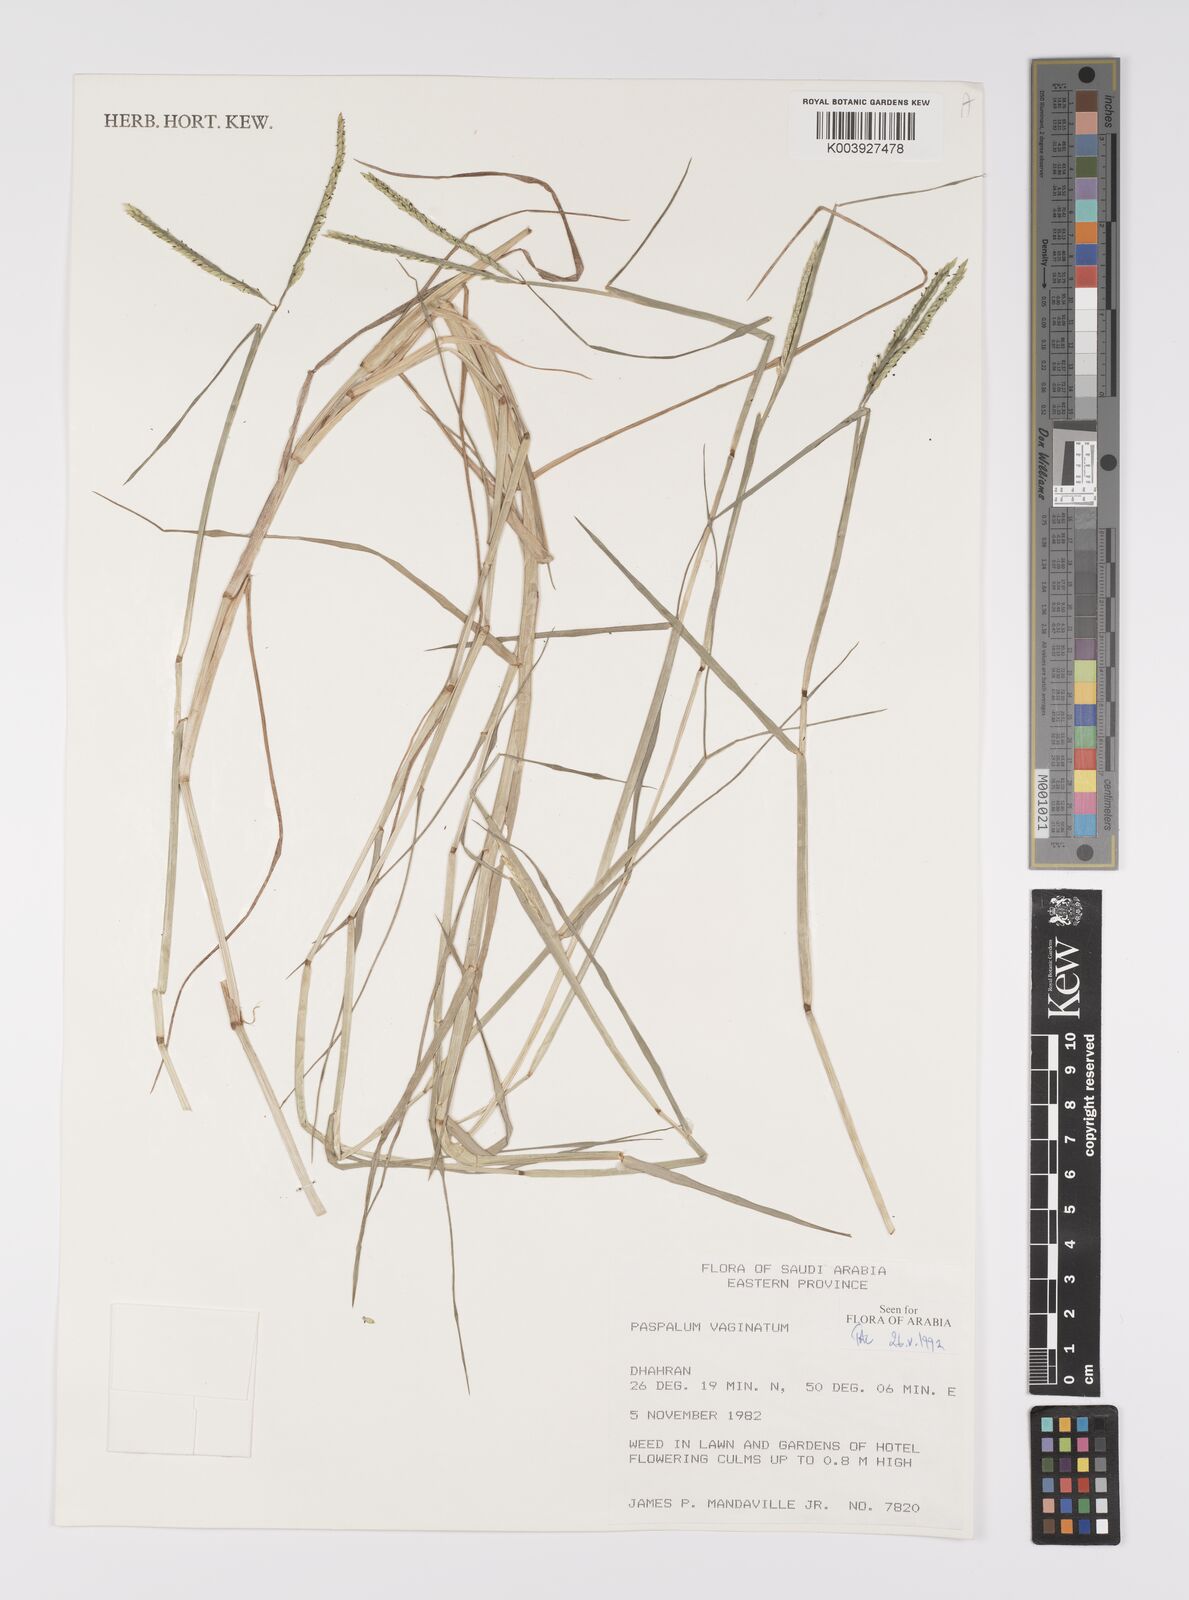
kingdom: Plantae
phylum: Tracheophyta
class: Liliopsida
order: Poales
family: Poaceae
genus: Paspalum
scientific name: Paspalum vaginatum
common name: Seashore paspalum
